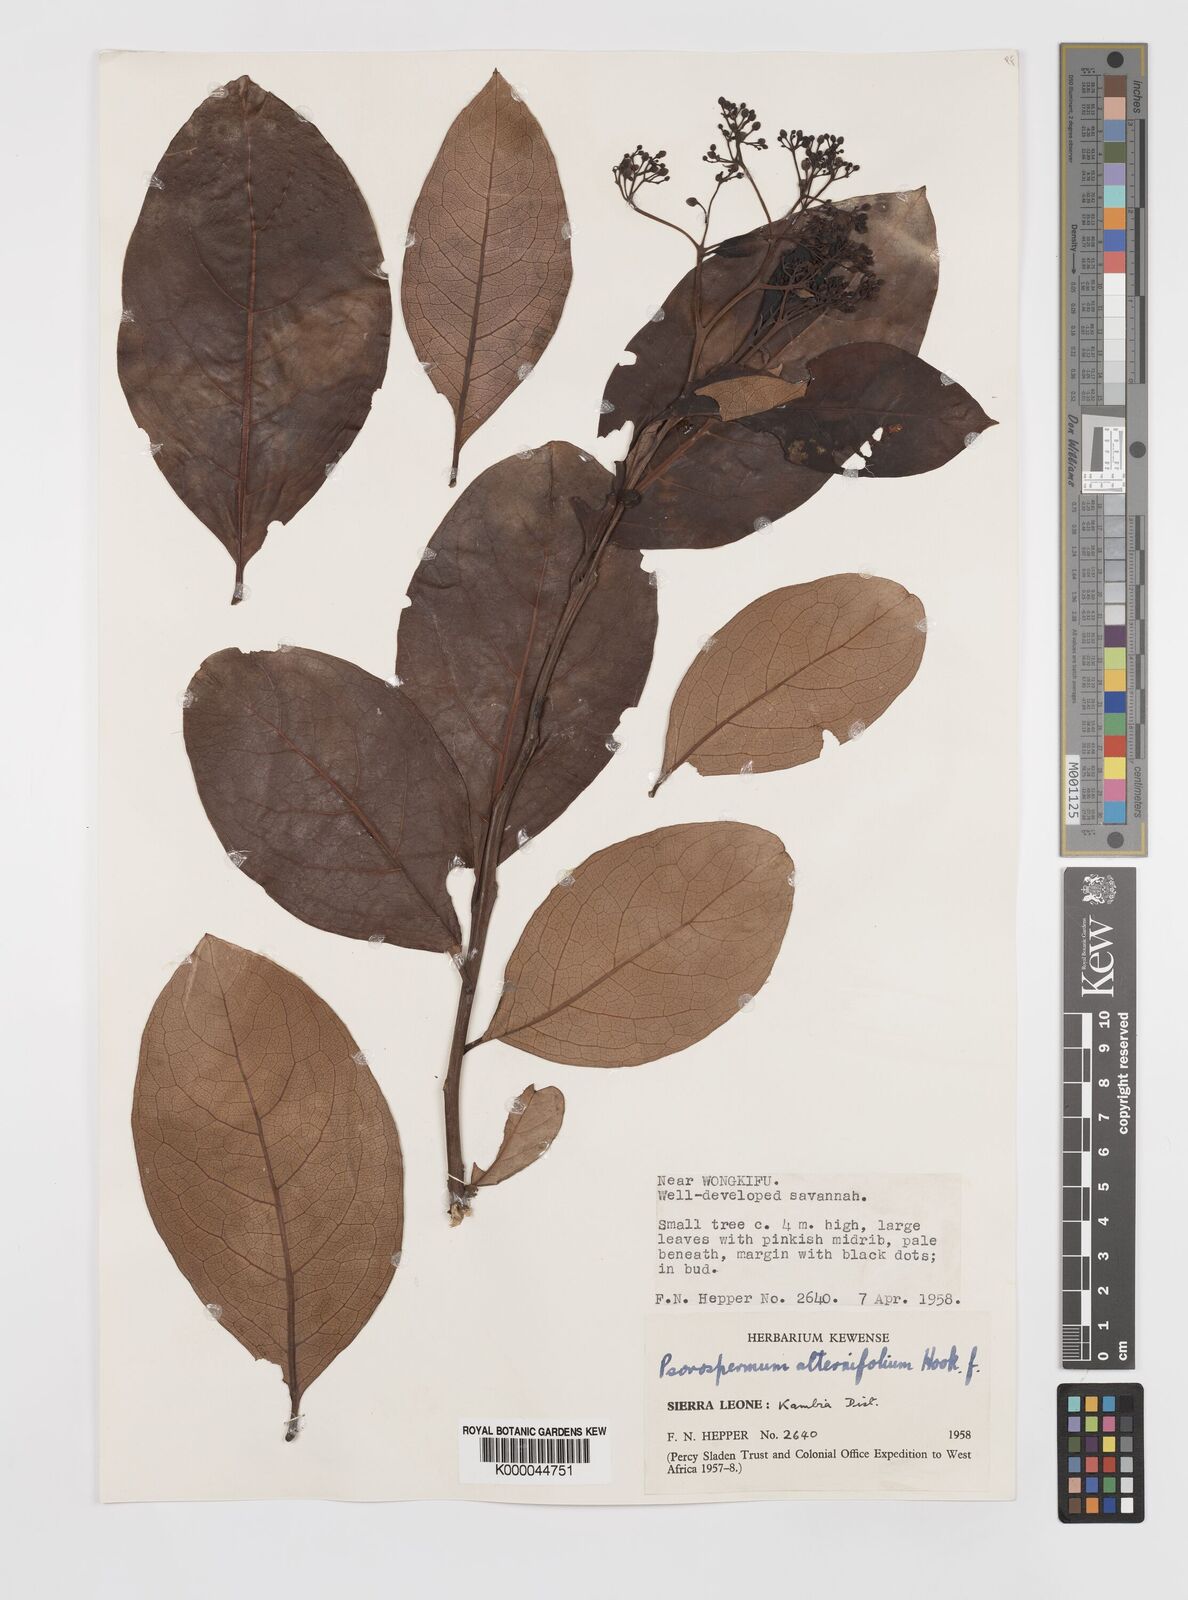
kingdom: Plantae
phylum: Tracheophyta
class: Magnoliopsida
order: Malpighiales
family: Hypericaceae
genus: Psorospermum
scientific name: Psorospermum alternifolium
